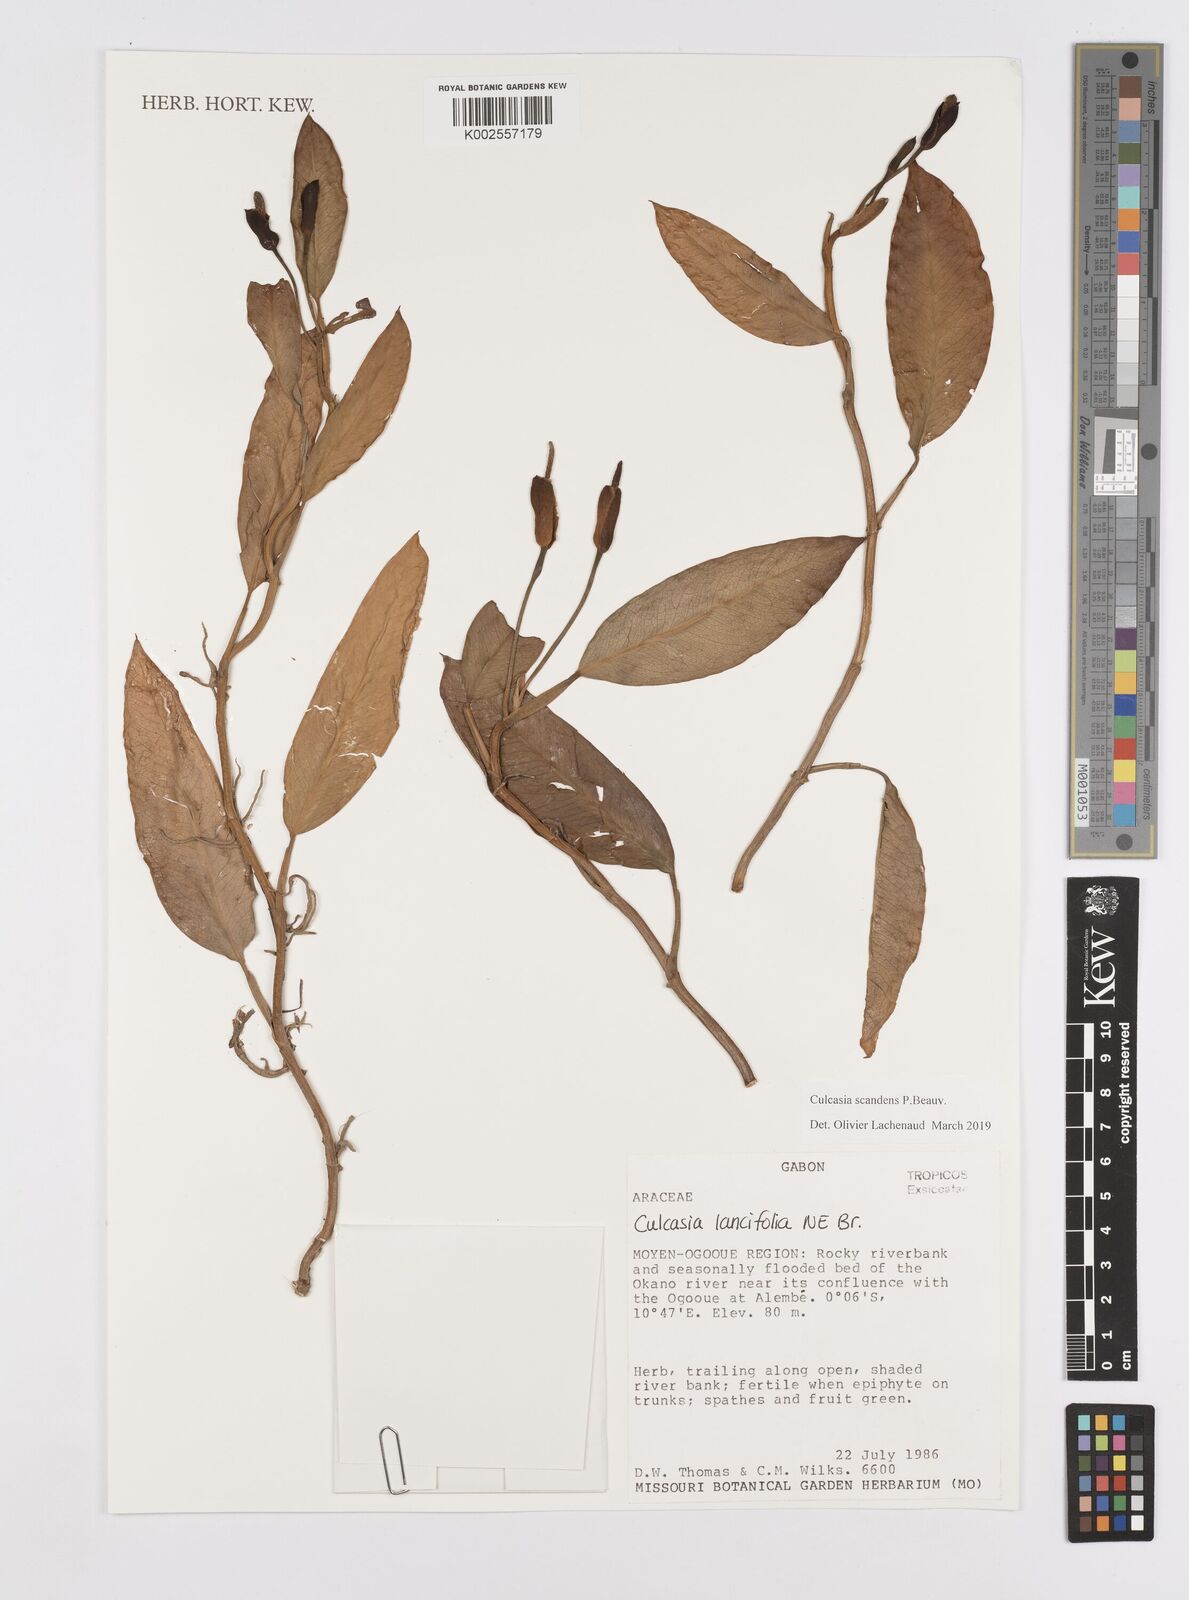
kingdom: Plantae
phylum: Tracheophyta
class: Liliopsida
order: Alismatales
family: Araceae
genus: Culcasia
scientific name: Culcasia scandens
